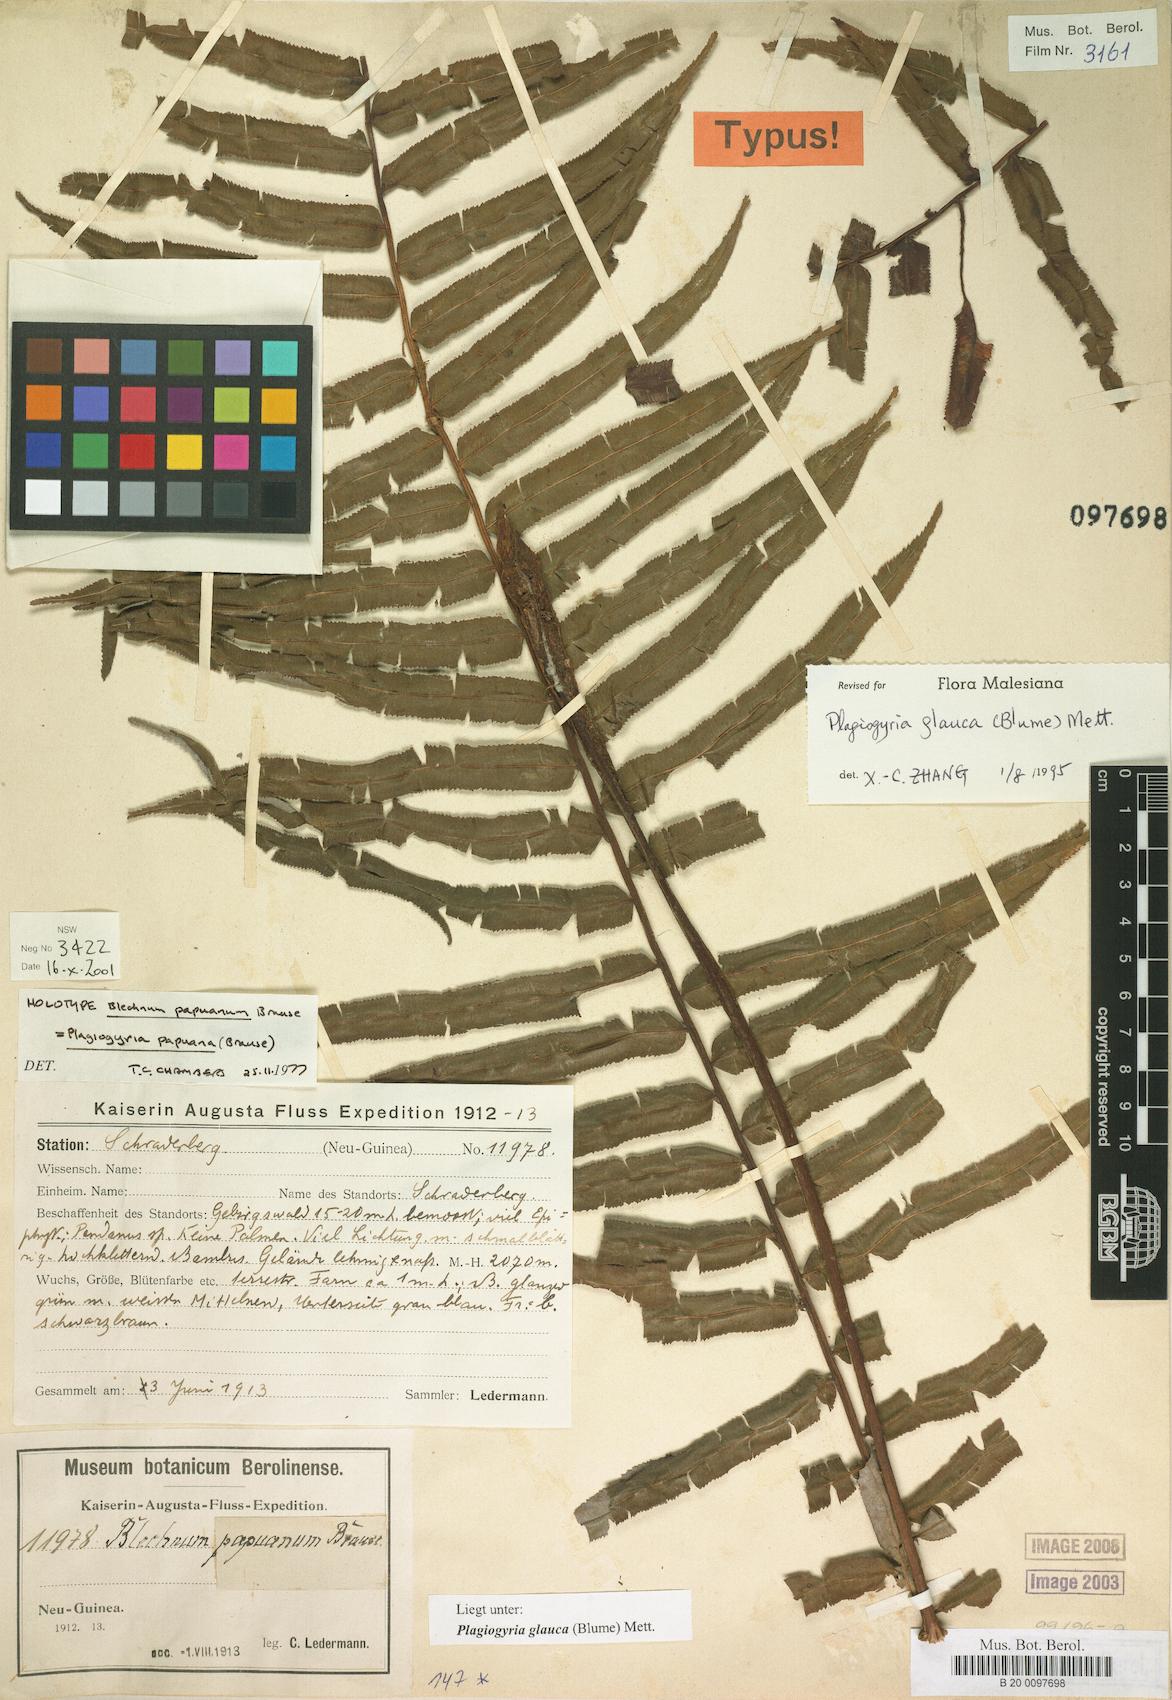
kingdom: Plantae
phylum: Tracheophyta
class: Polypodiopsida
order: Cyatheales
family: Plagiogyriaceae
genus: Plagiogyria
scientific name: Plagiogyria glauca
